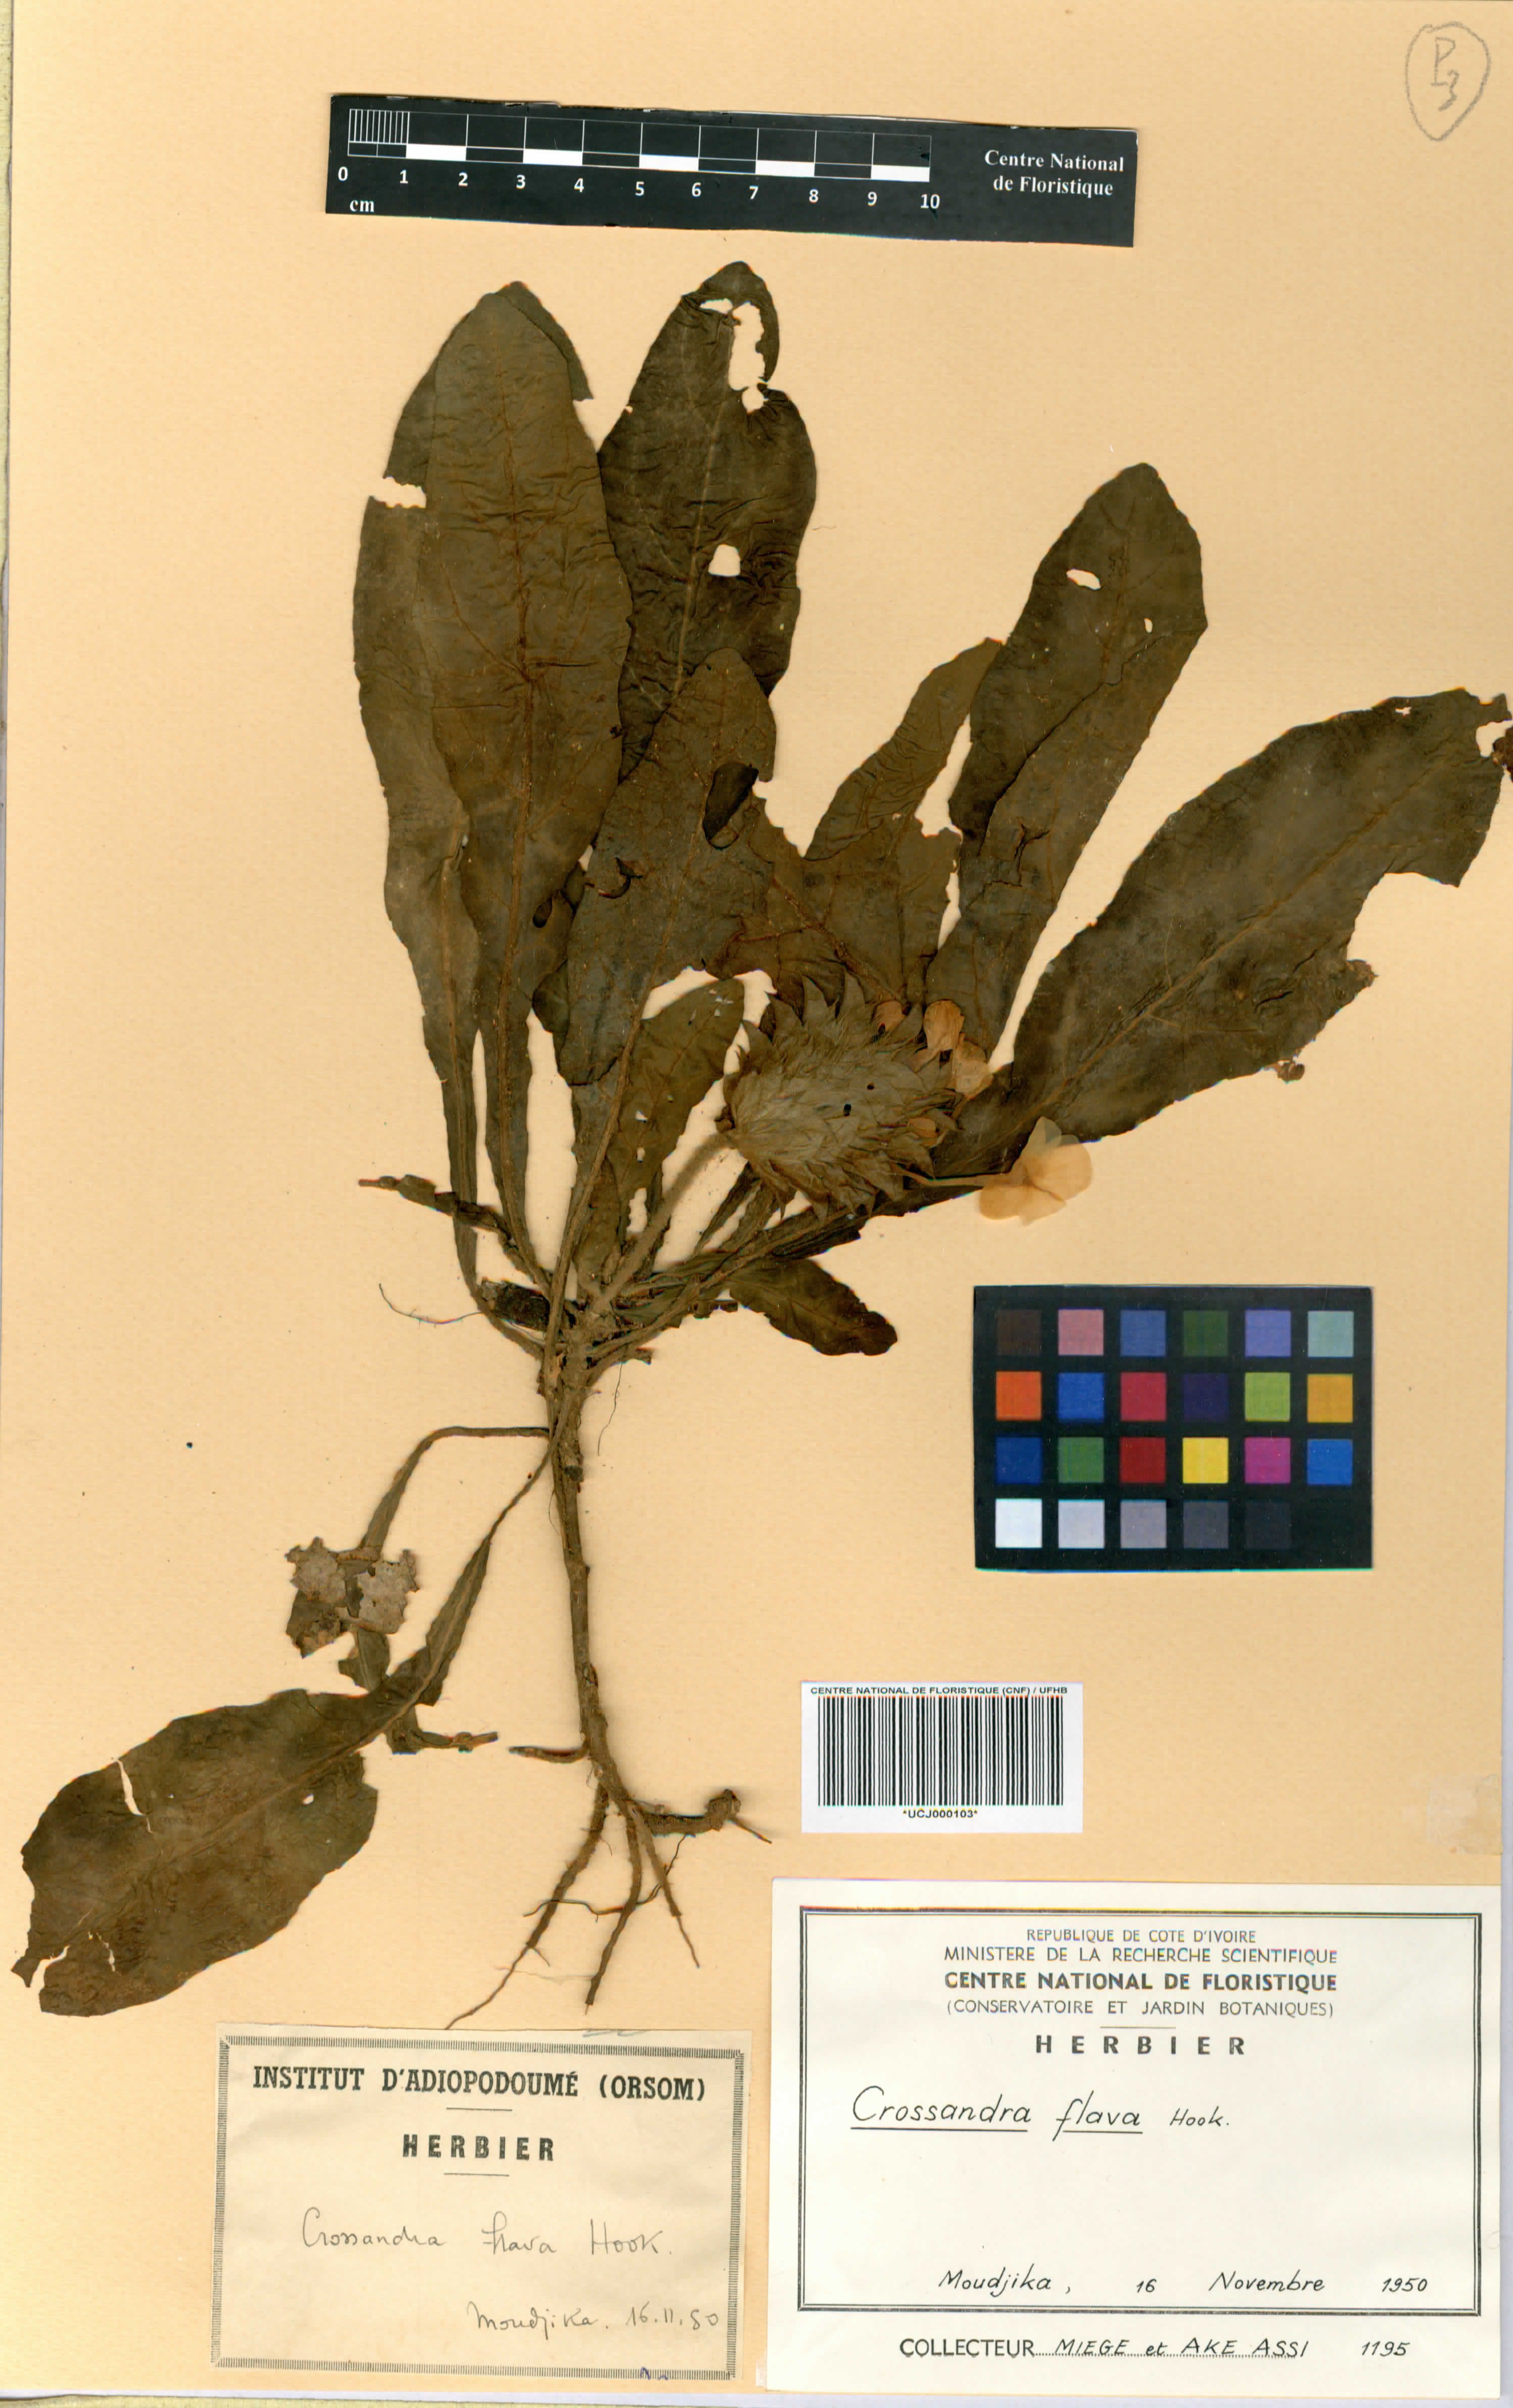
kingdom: Plantae
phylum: Tracheophyta
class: Magnoliopsida
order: Lamiales
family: Acanthaceae
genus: Crossandra
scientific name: Crossandra flava
